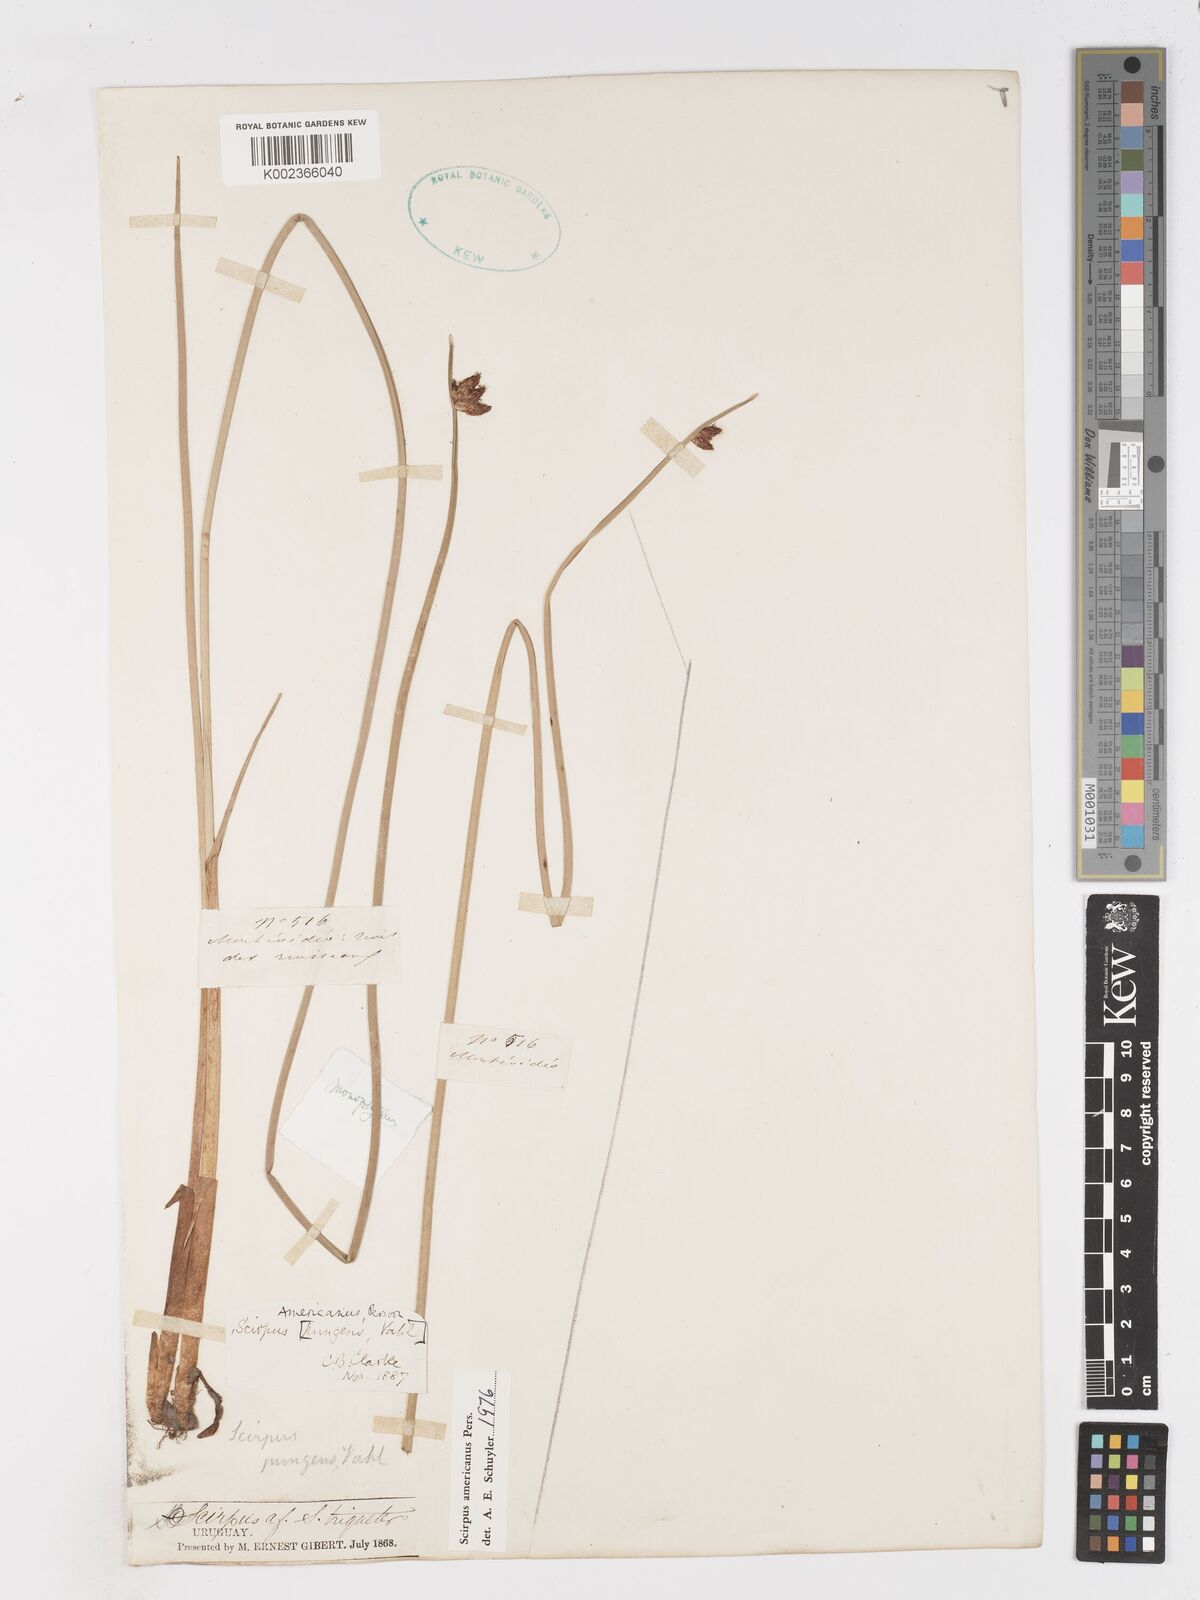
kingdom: Plantae
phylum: Tracheophyta
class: Liliopsida
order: Poales
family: Cyperaceae
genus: Schoenoplectus
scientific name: Schoenoplectus americanus
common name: American three-square bulrush
